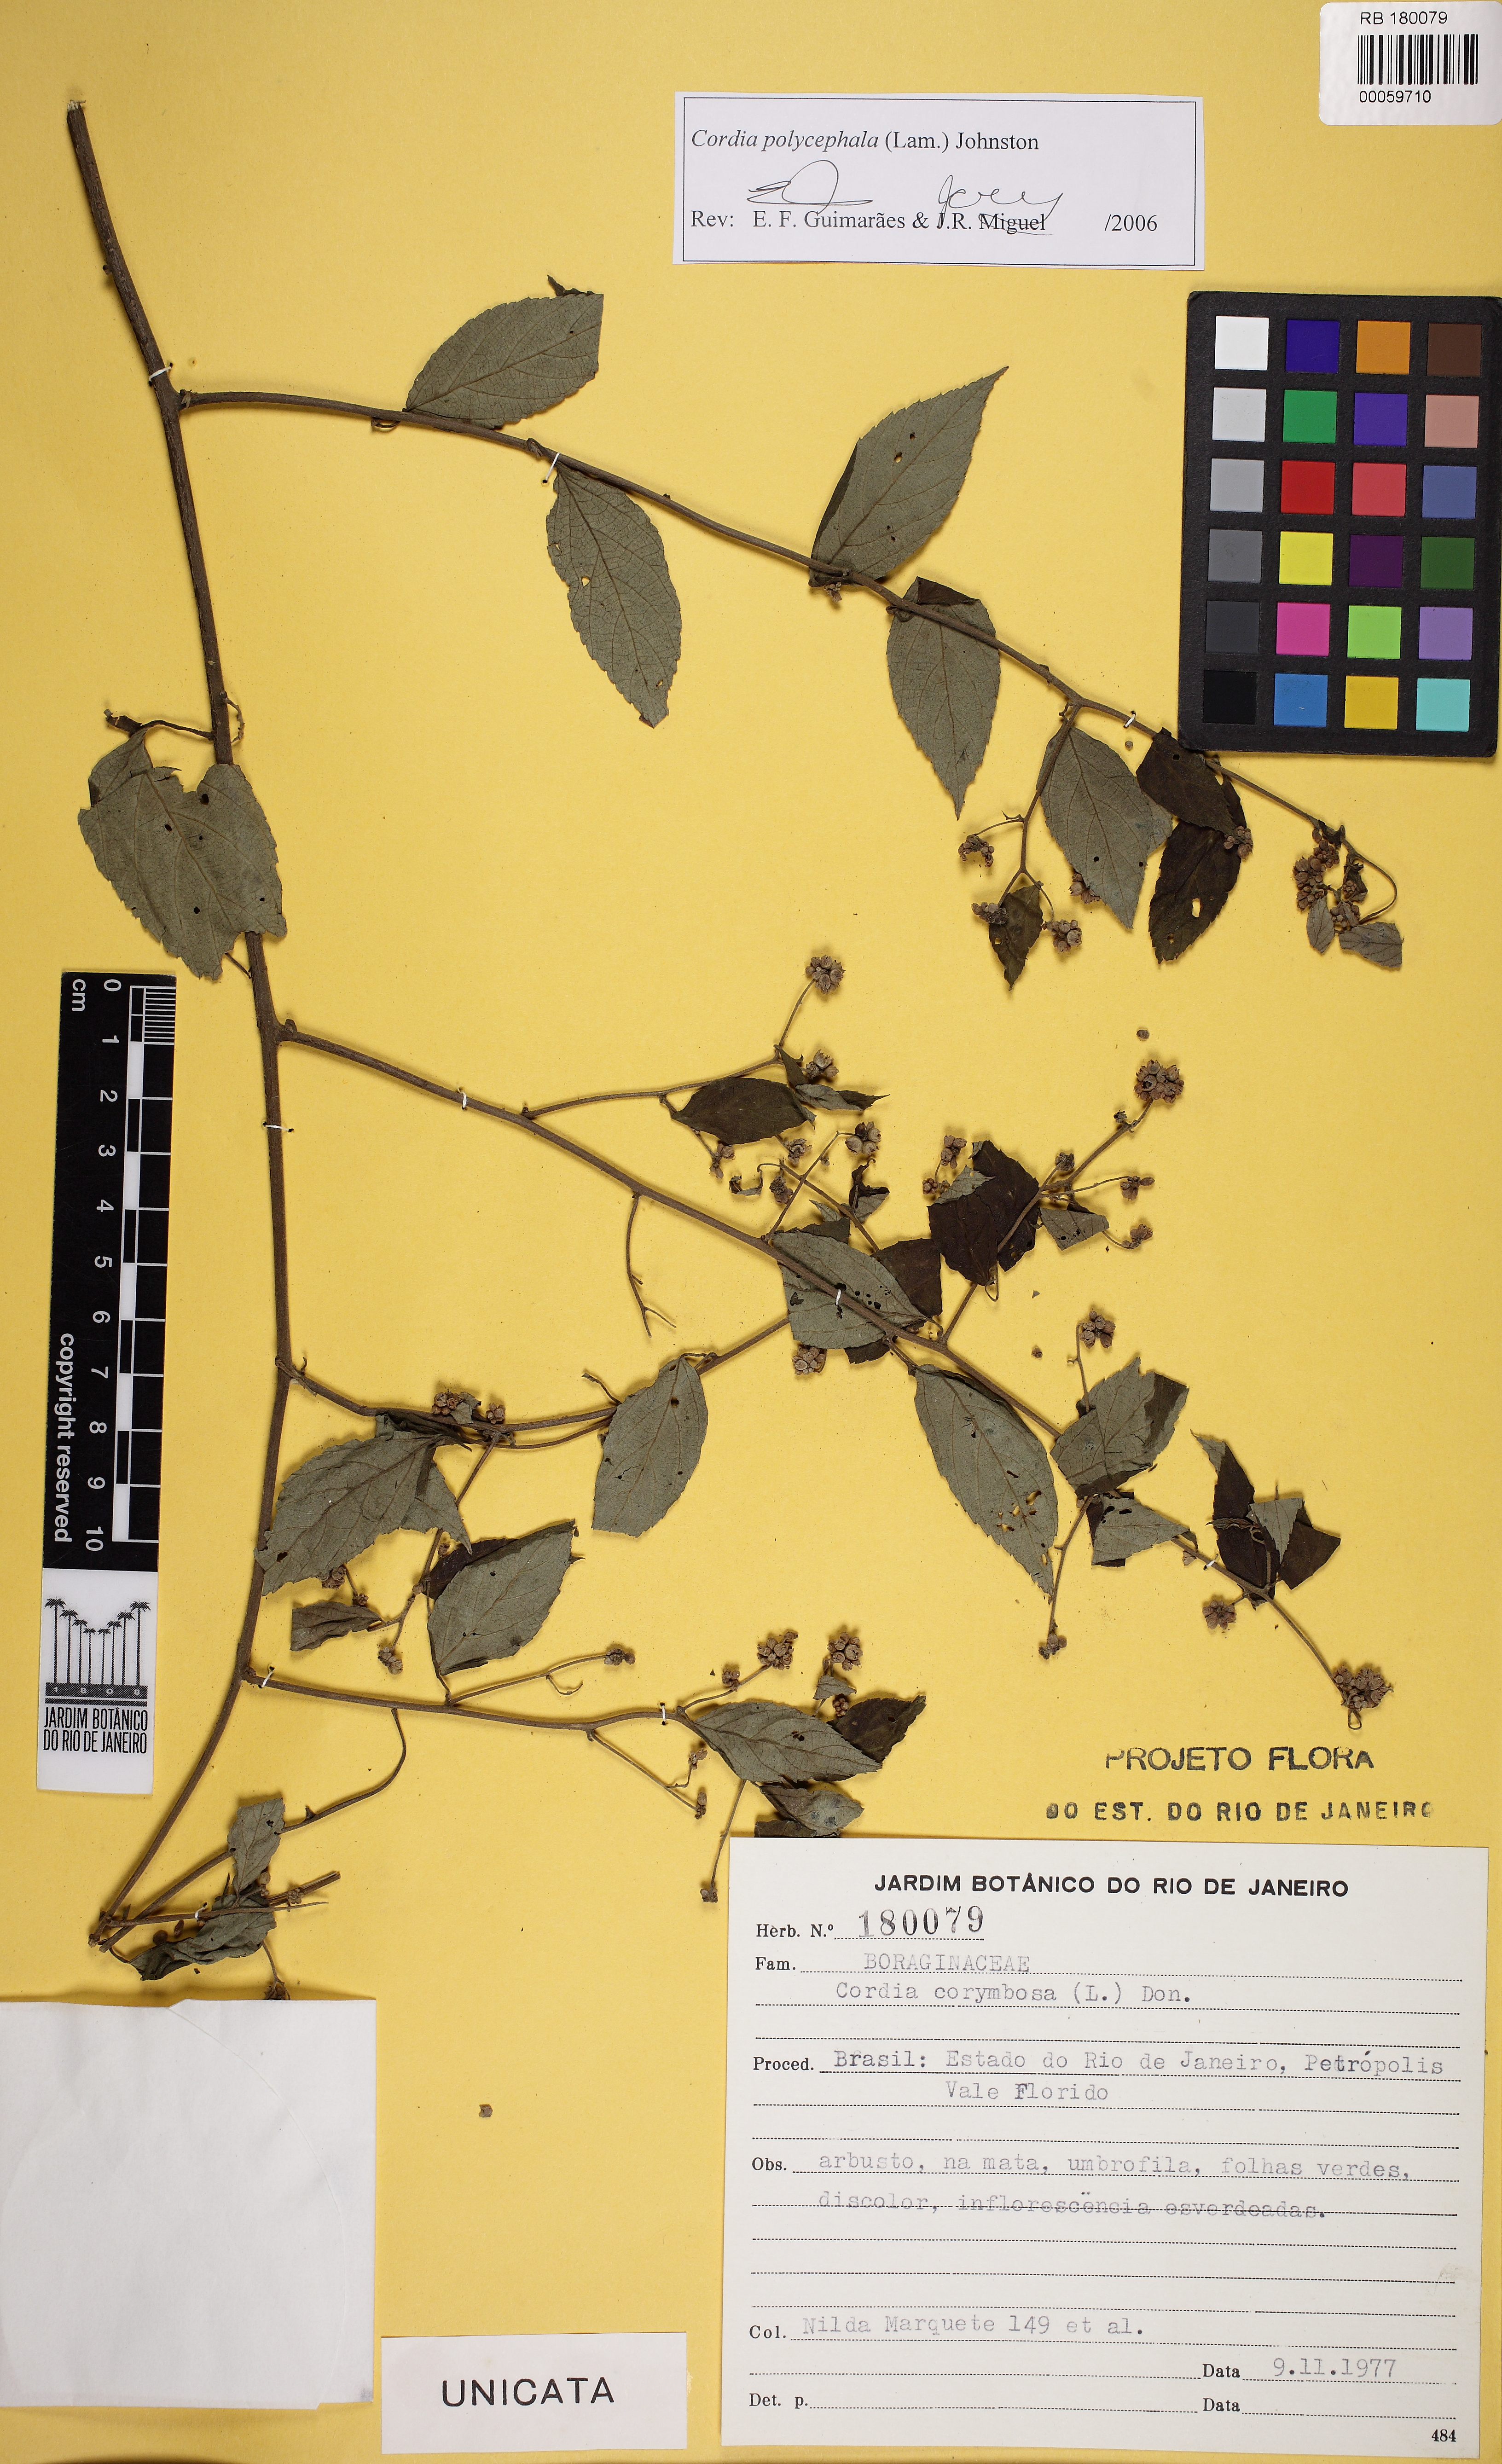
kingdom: Plantae
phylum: Tracheophyta
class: Magnoliopsida
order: Boraginales
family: Cordiaceae
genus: Varronia
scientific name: Varronia polycephala
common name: Black-sage
